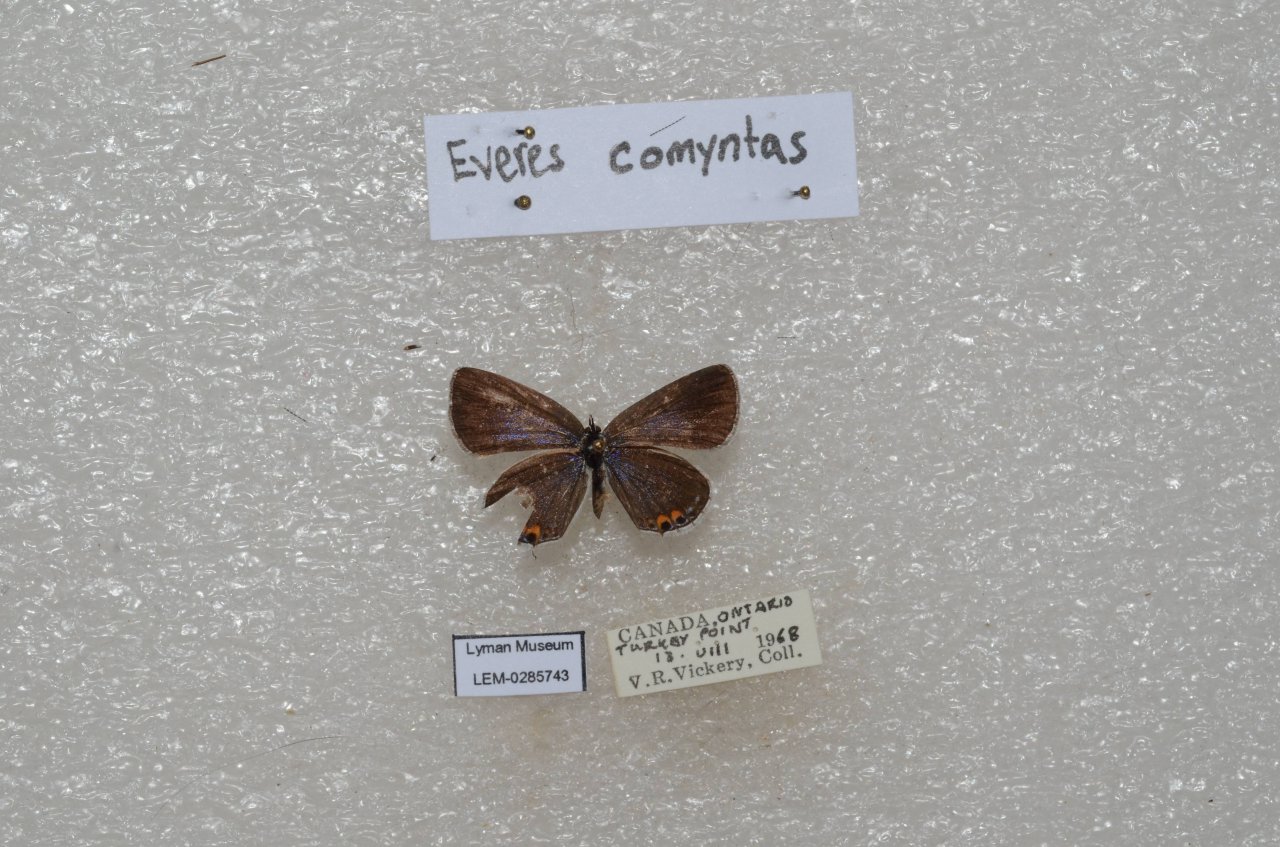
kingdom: Animalia
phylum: Arthropoda
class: Insecta
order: Lepidoptera
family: Lycaenidae
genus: Elkalyce
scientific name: Elkalyce comyntas
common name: Eastern Tailed-Blue
